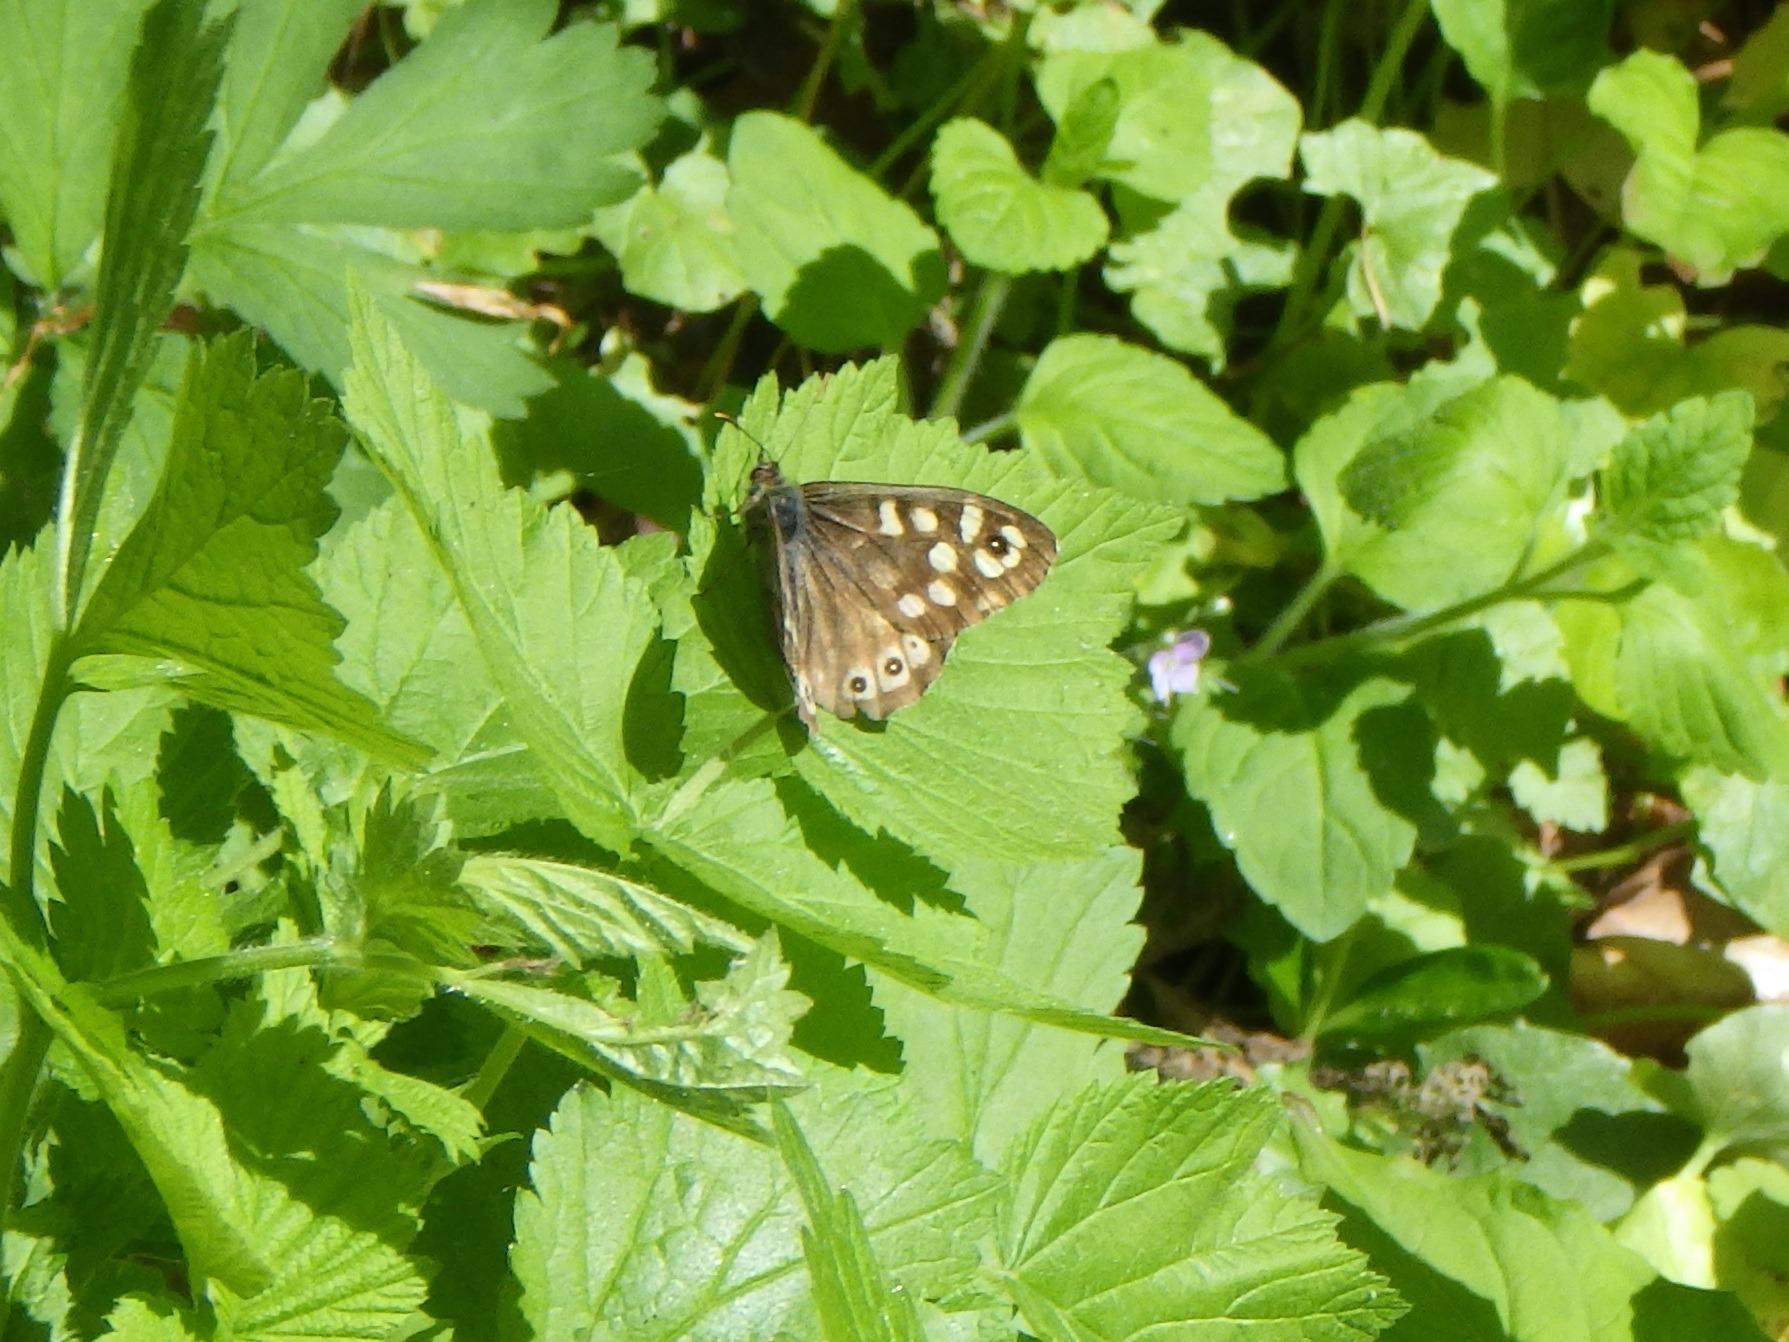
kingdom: Animalia
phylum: Arthropoda
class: Insecta
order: Lepidoptera
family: Nymphalidae
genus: Pararge
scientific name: Pararge aegeria
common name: Skovrandøje
